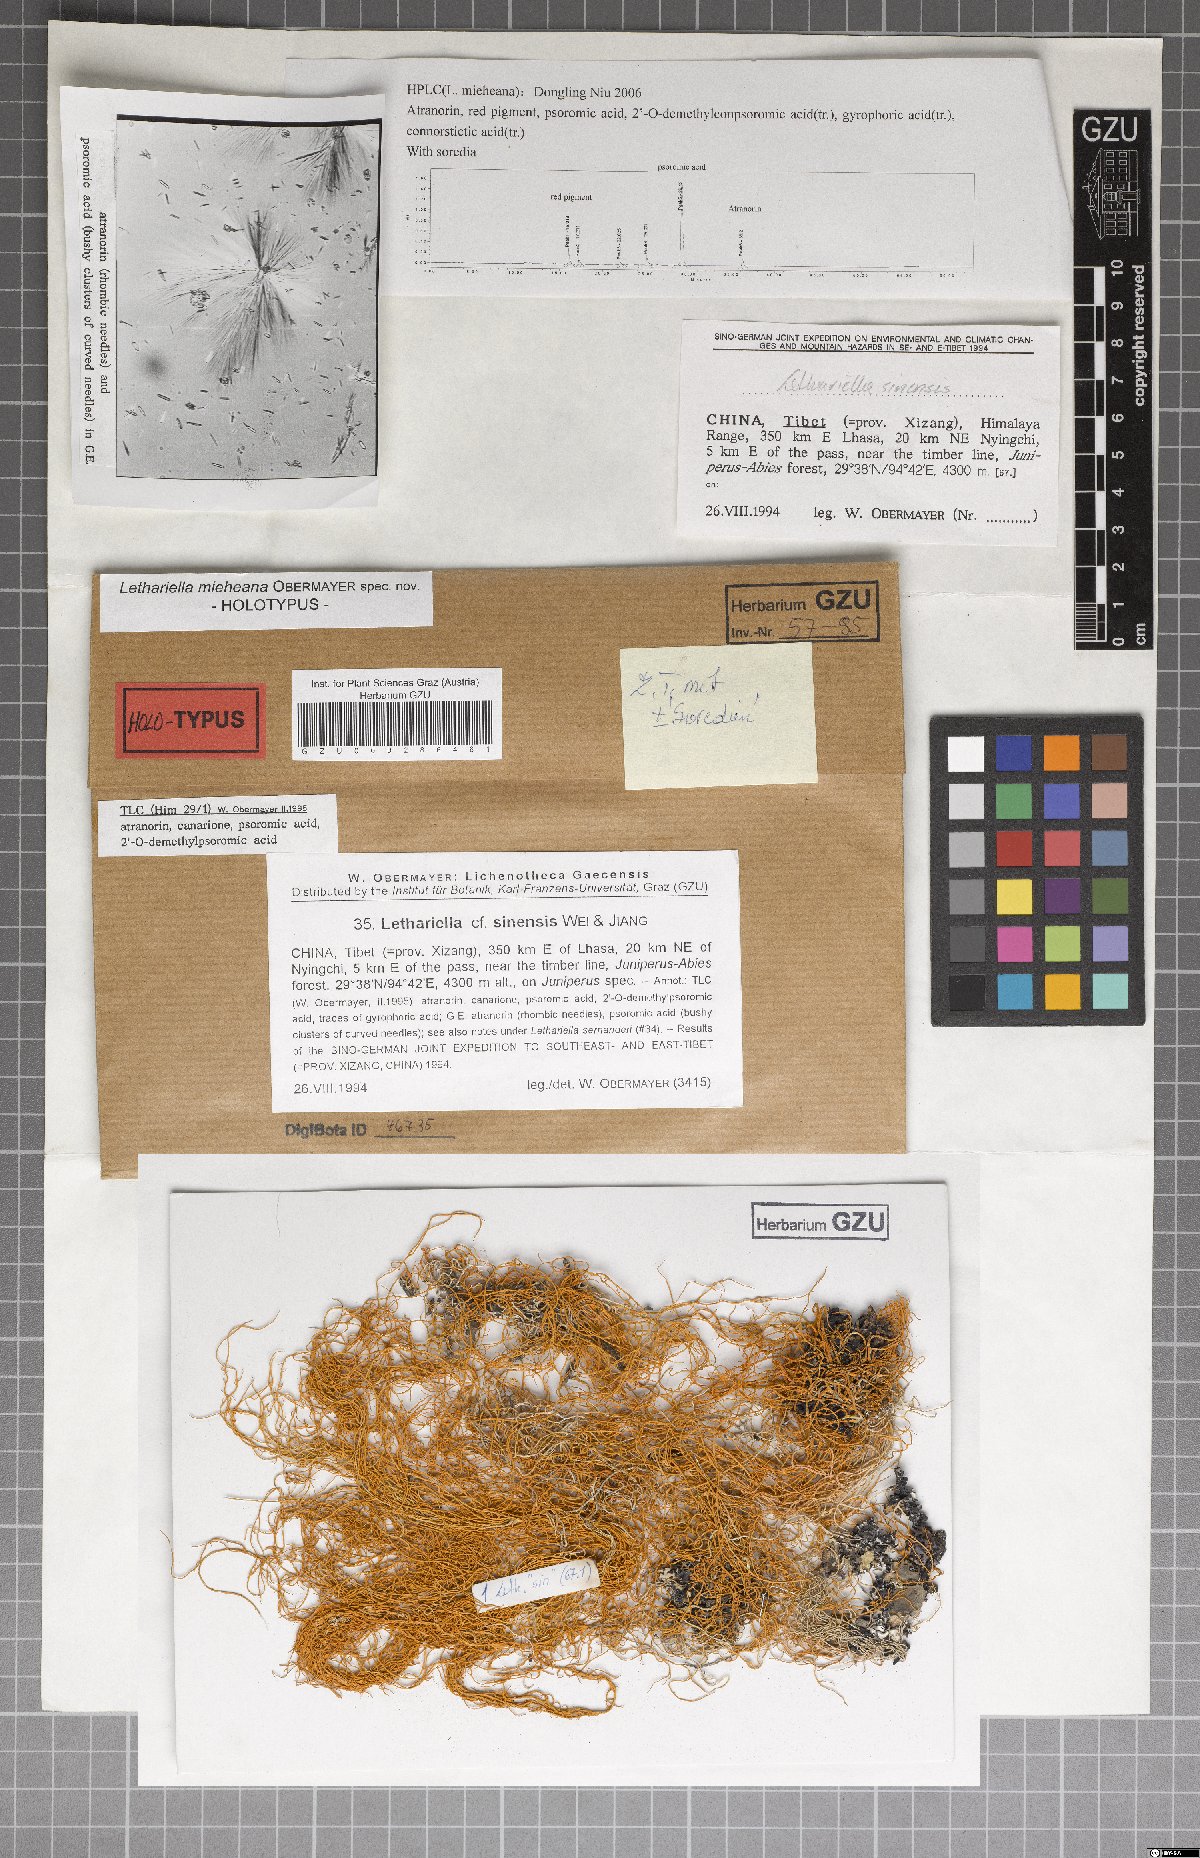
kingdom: Fungi
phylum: Ascomycota
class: Lecanoromycetes
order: Lecanorales
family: Parmeliaceae
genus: Lethariella
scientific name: Lethariella mieheana
